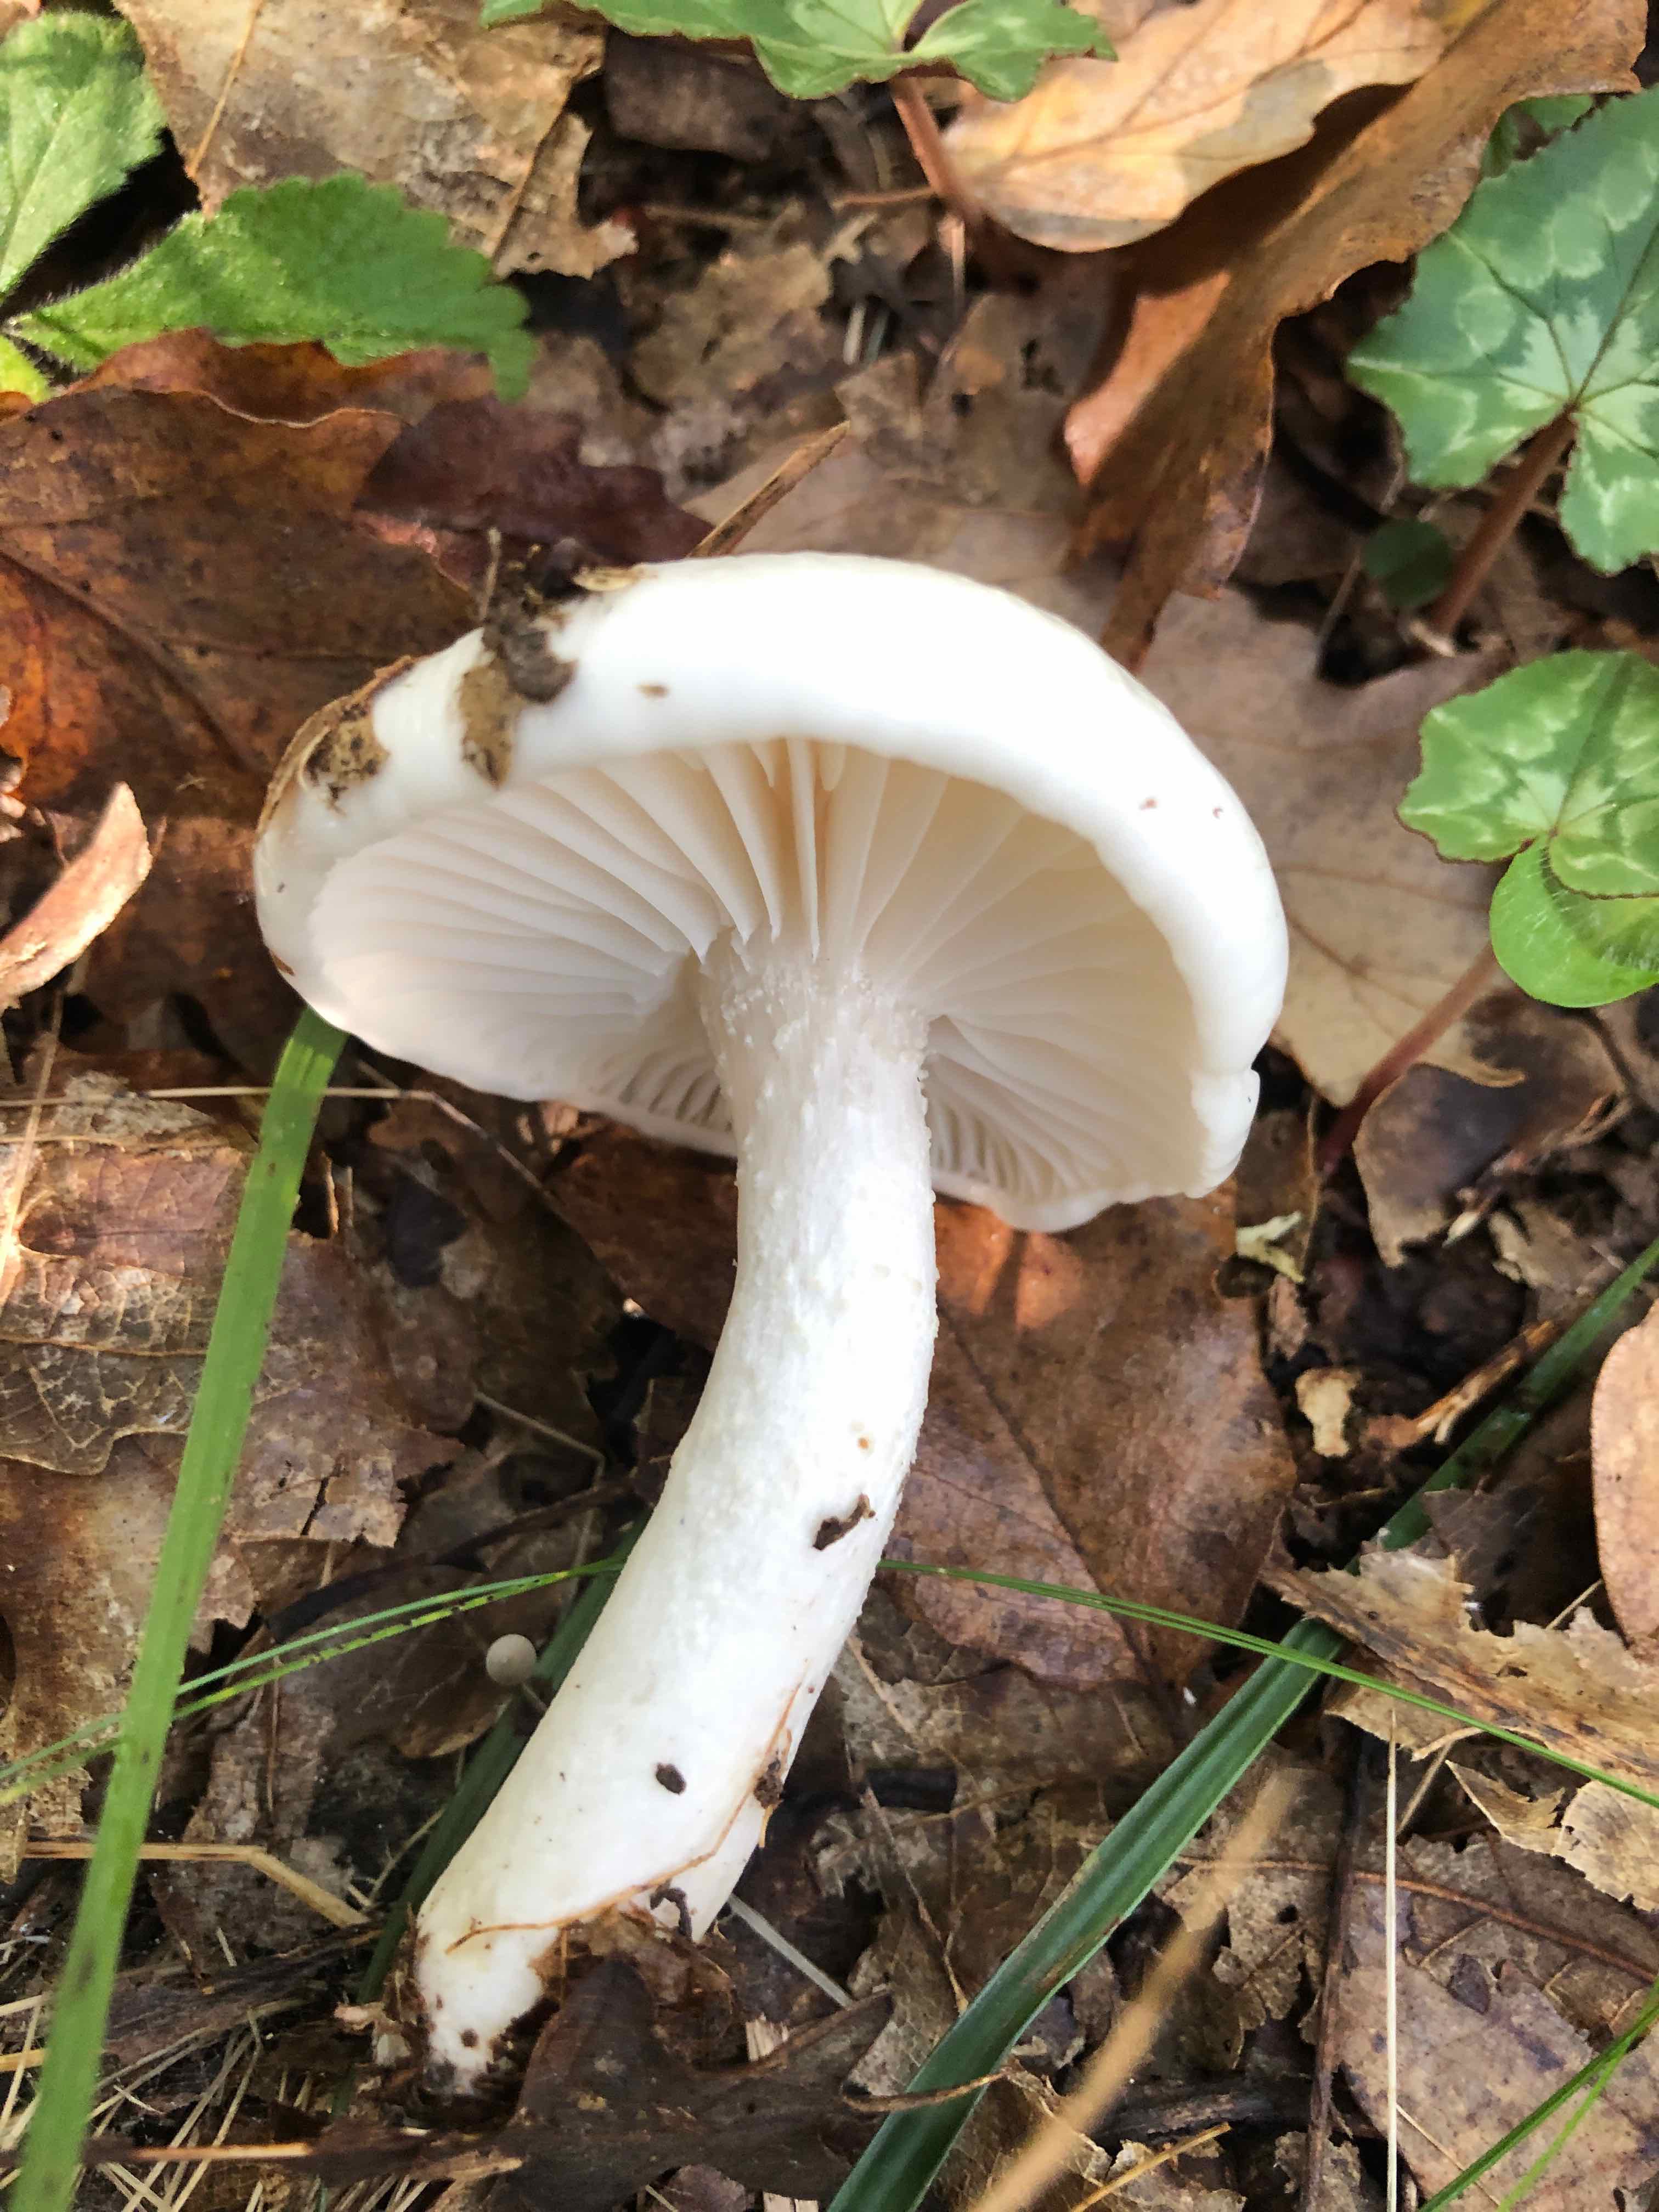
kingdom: Fungi
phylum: Basidiomycota
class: Agaricomycetes
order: Agaricales
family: Hygrophoraceae
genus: Hygrophorus
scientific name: Hygrophorus cossus
